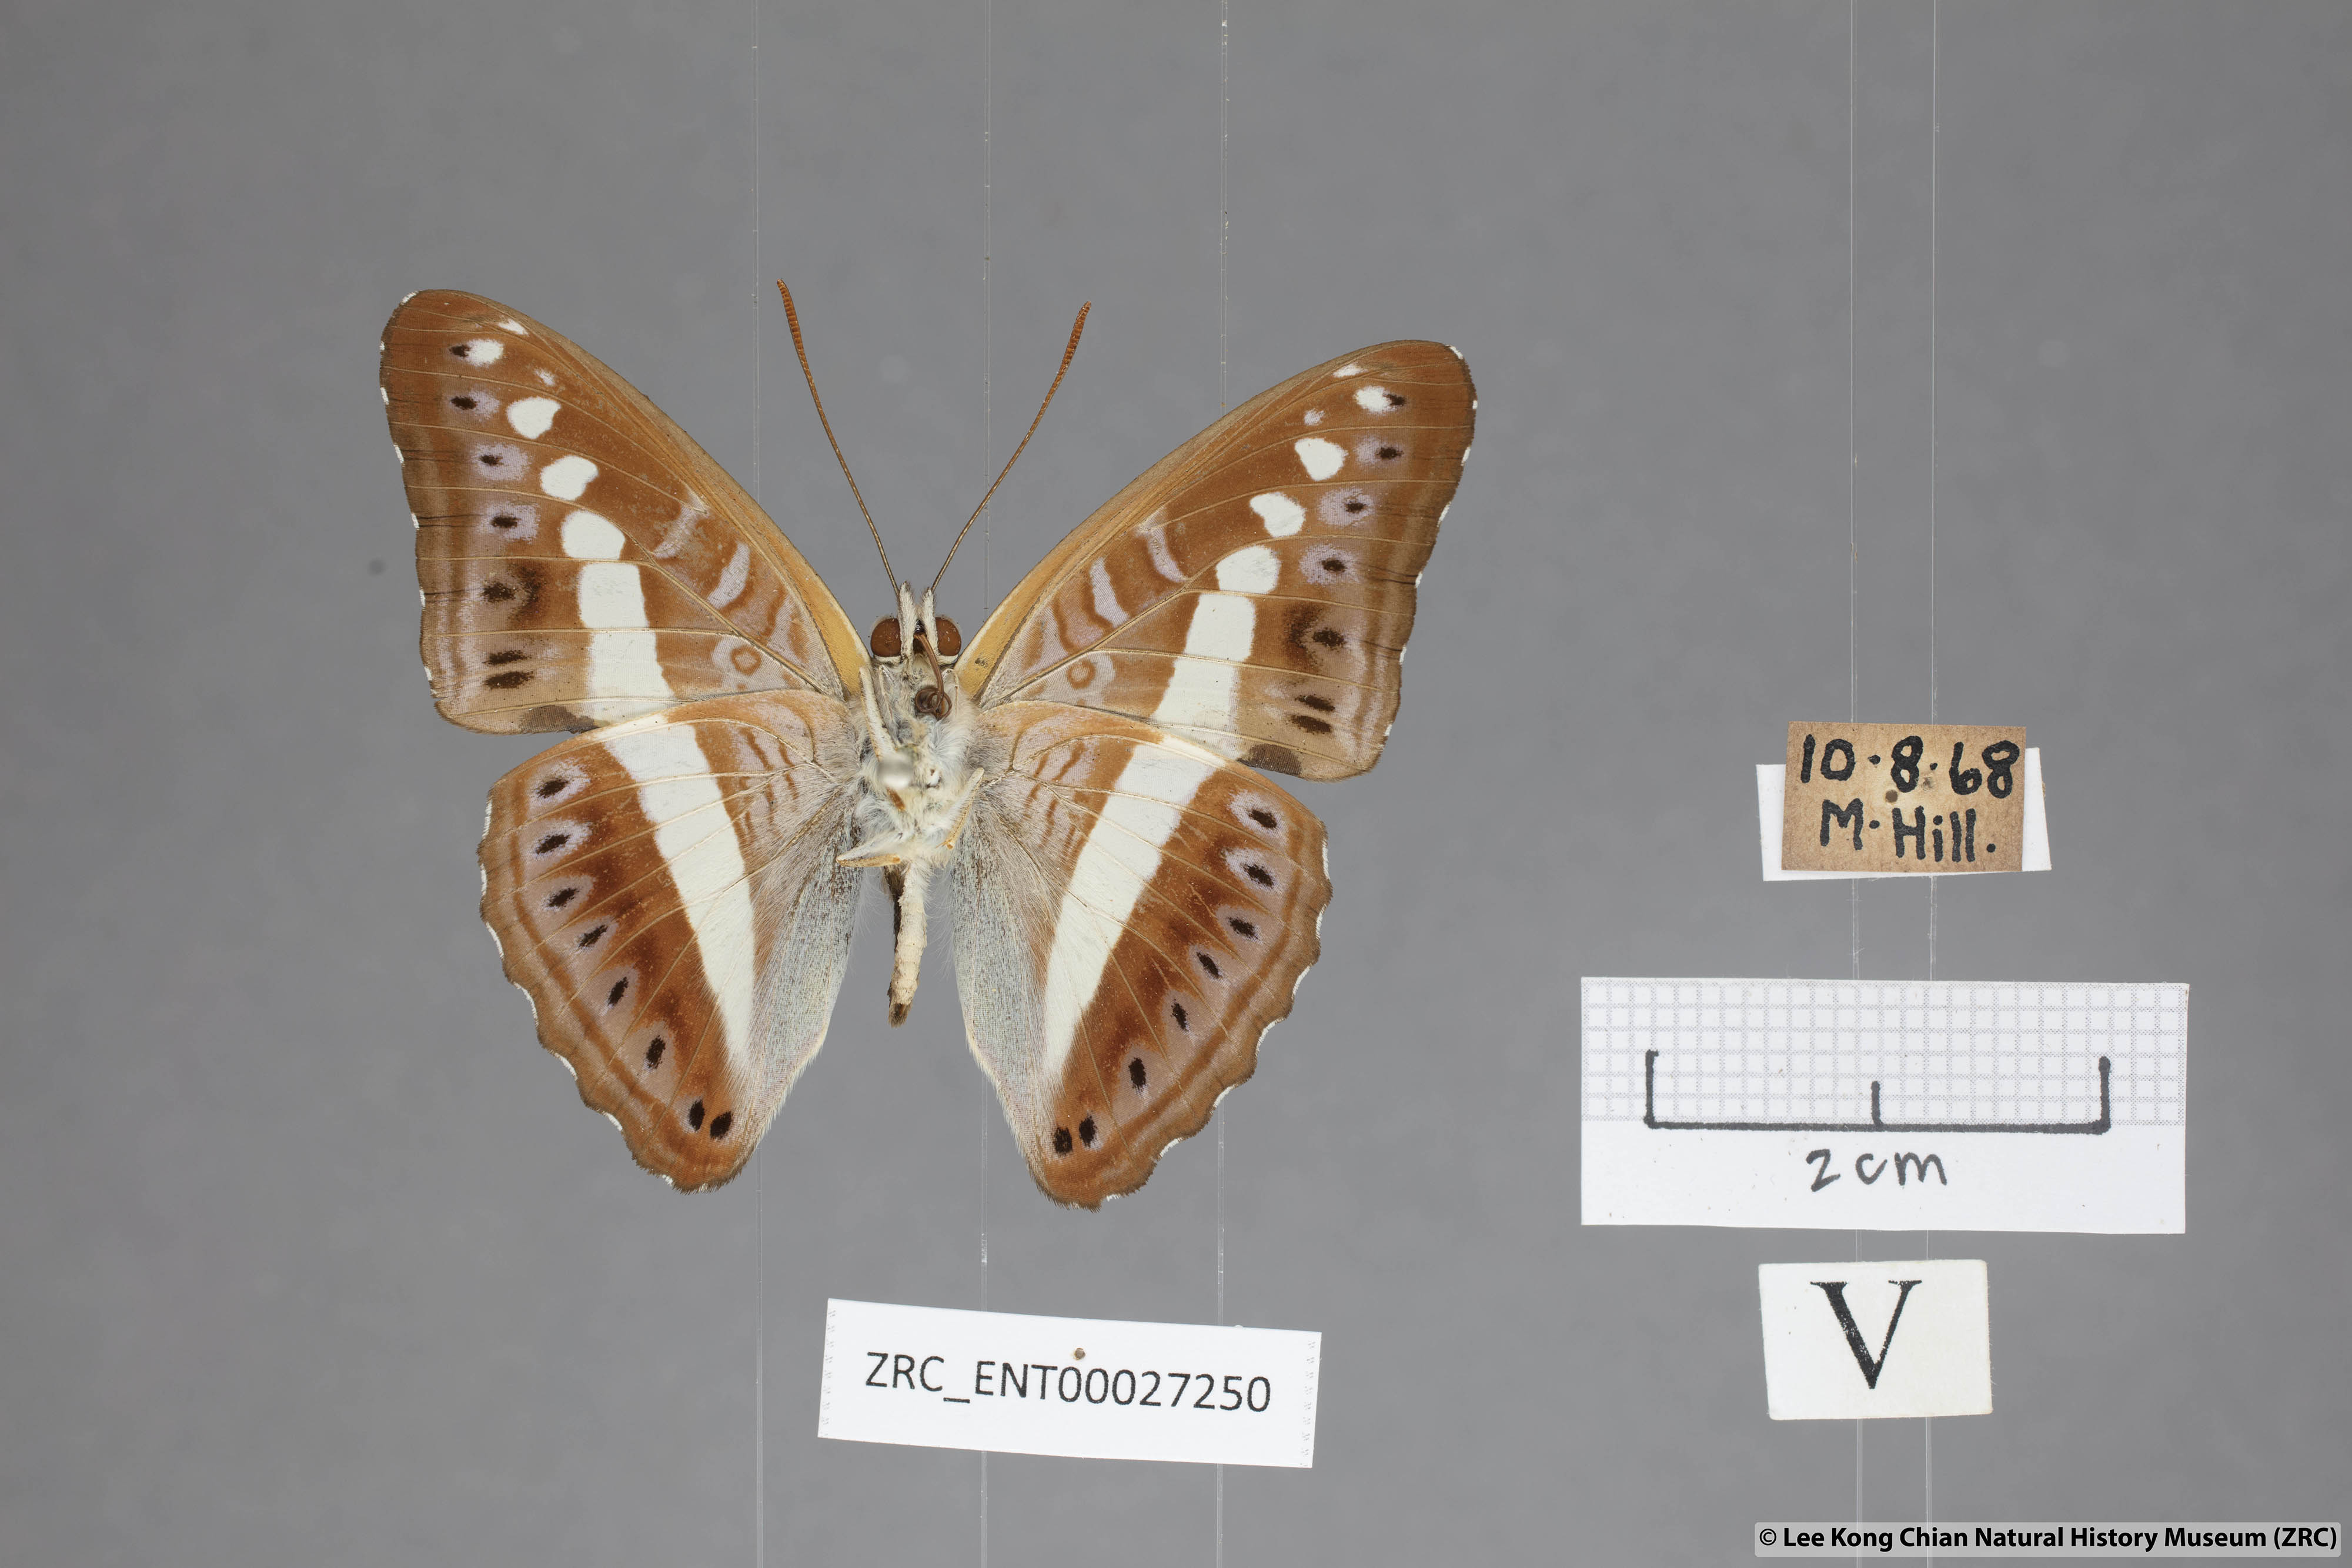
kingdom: Animalia
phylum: Arthropoda
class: Insecta
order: Lepidoptera
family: Nymphalidae
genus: Limenitis
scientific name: Limenitis Sumalia daraxa
